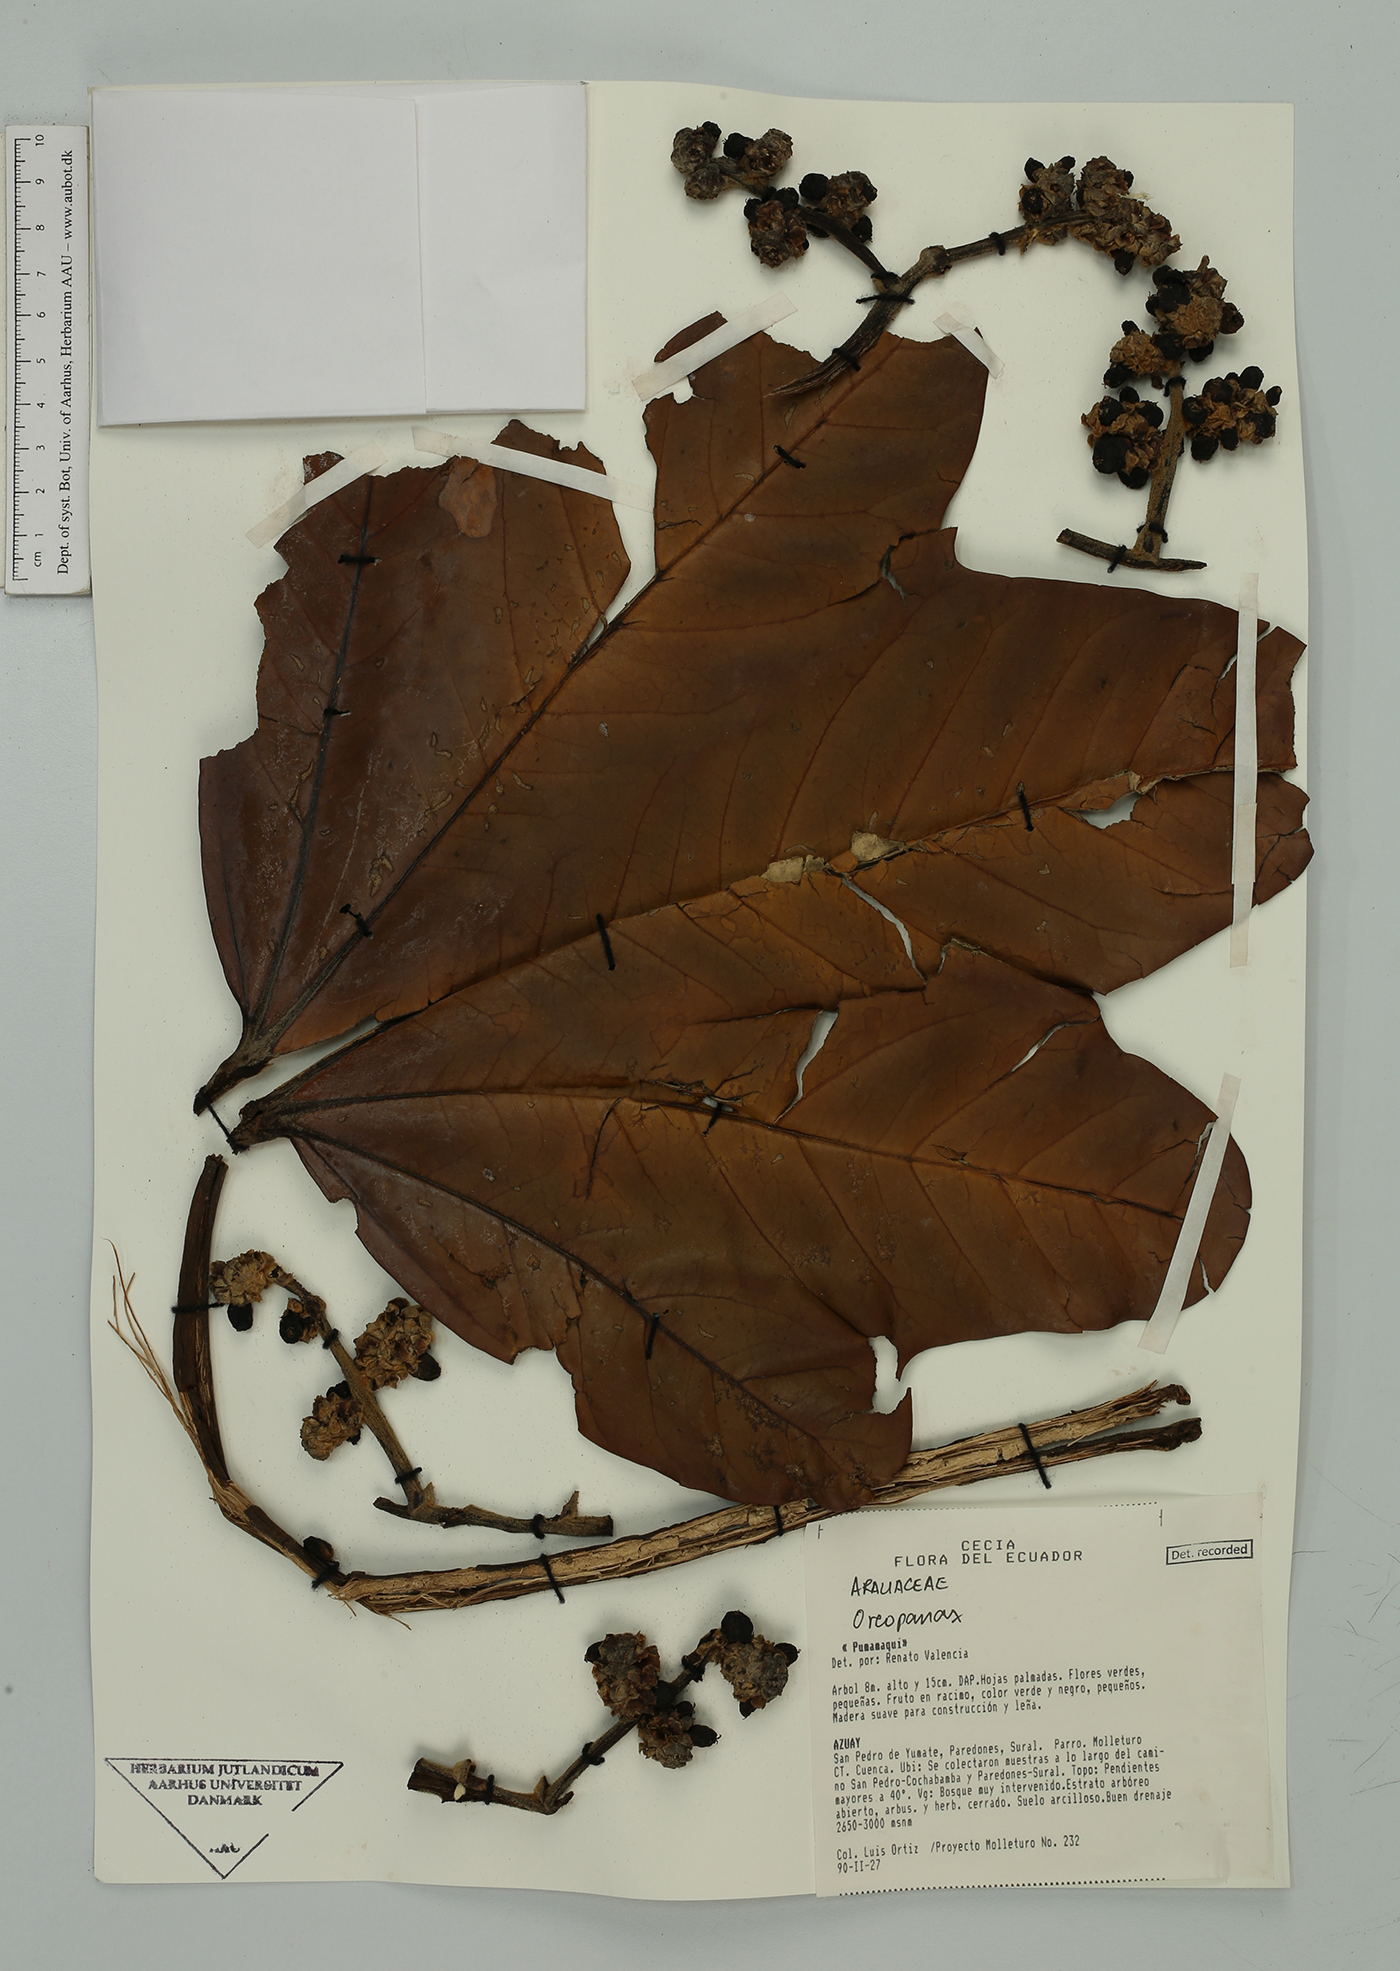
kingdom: Plantae
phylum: Tracheophyta
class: Magnoliopsida
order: Apiales
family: Araliaceae
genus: Oreopanax
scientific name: Oreopanax
